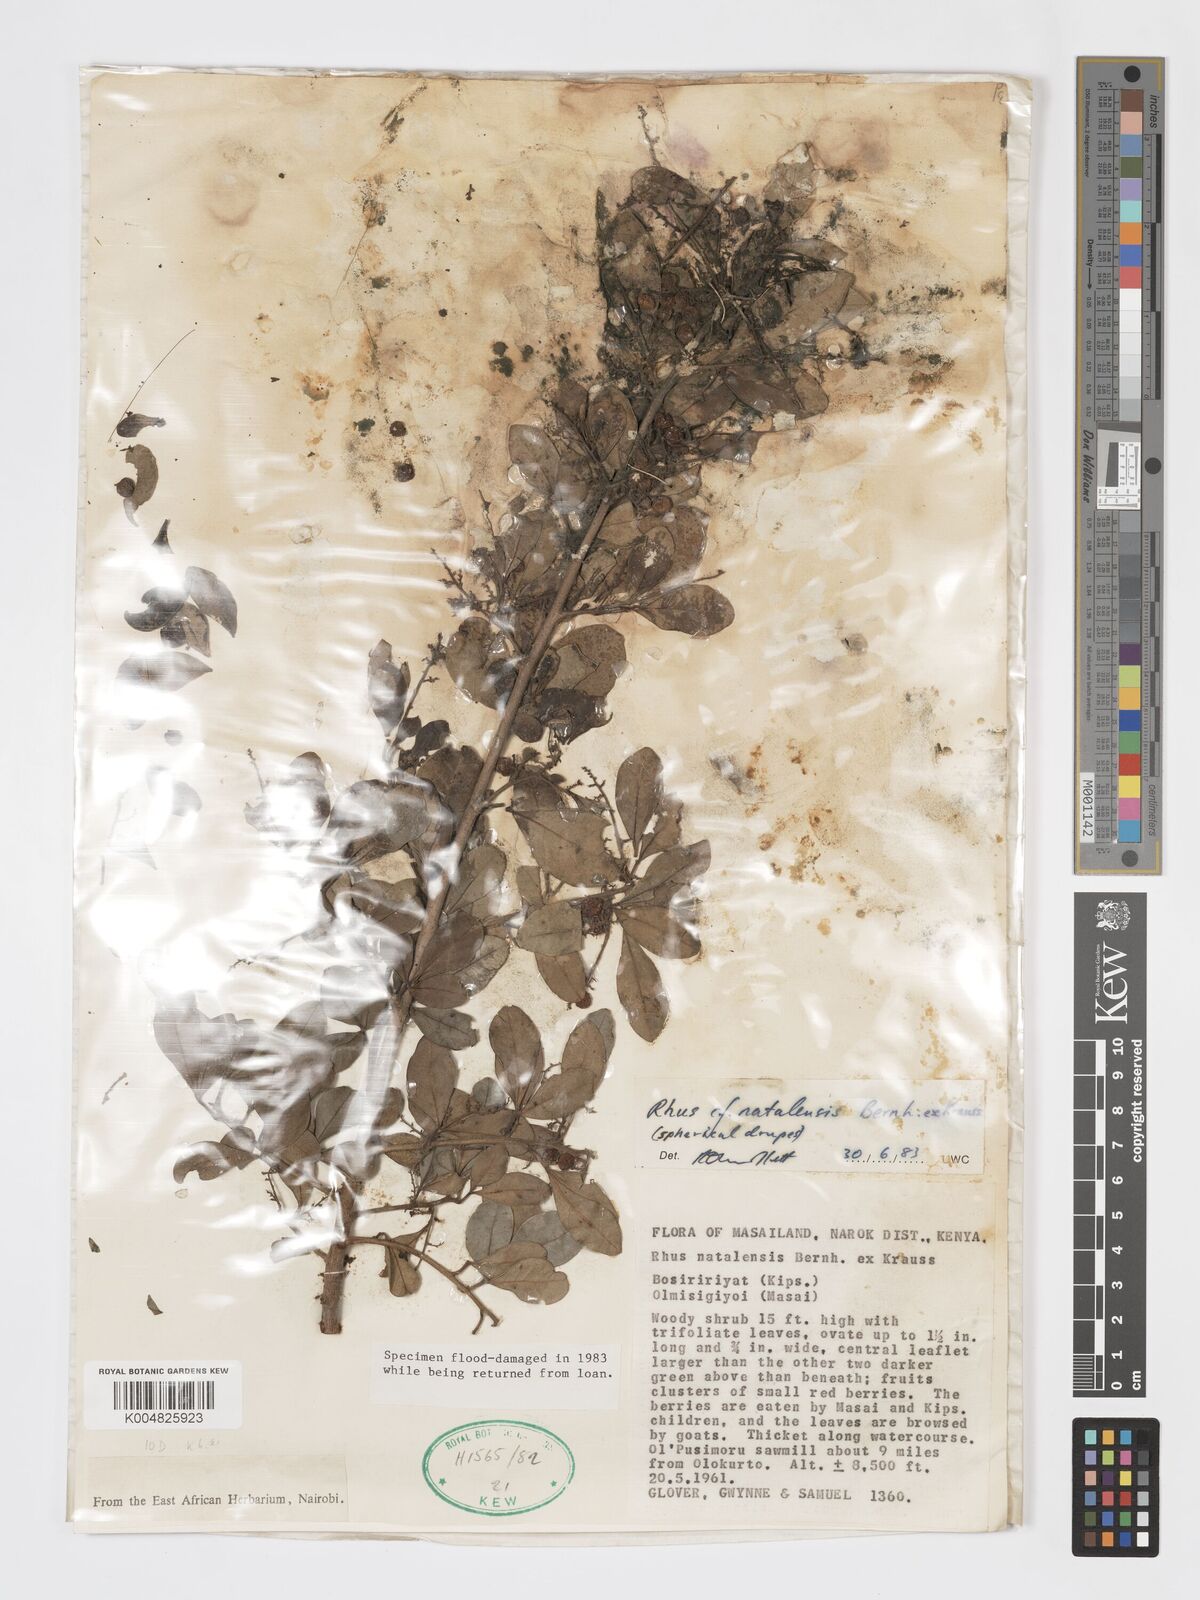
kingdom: Plantae
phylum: Tracheophyta
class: Magnoliopsida
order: Sapindales
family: Anacardiaceae
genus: Searsia
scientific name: Searsia natalensis
